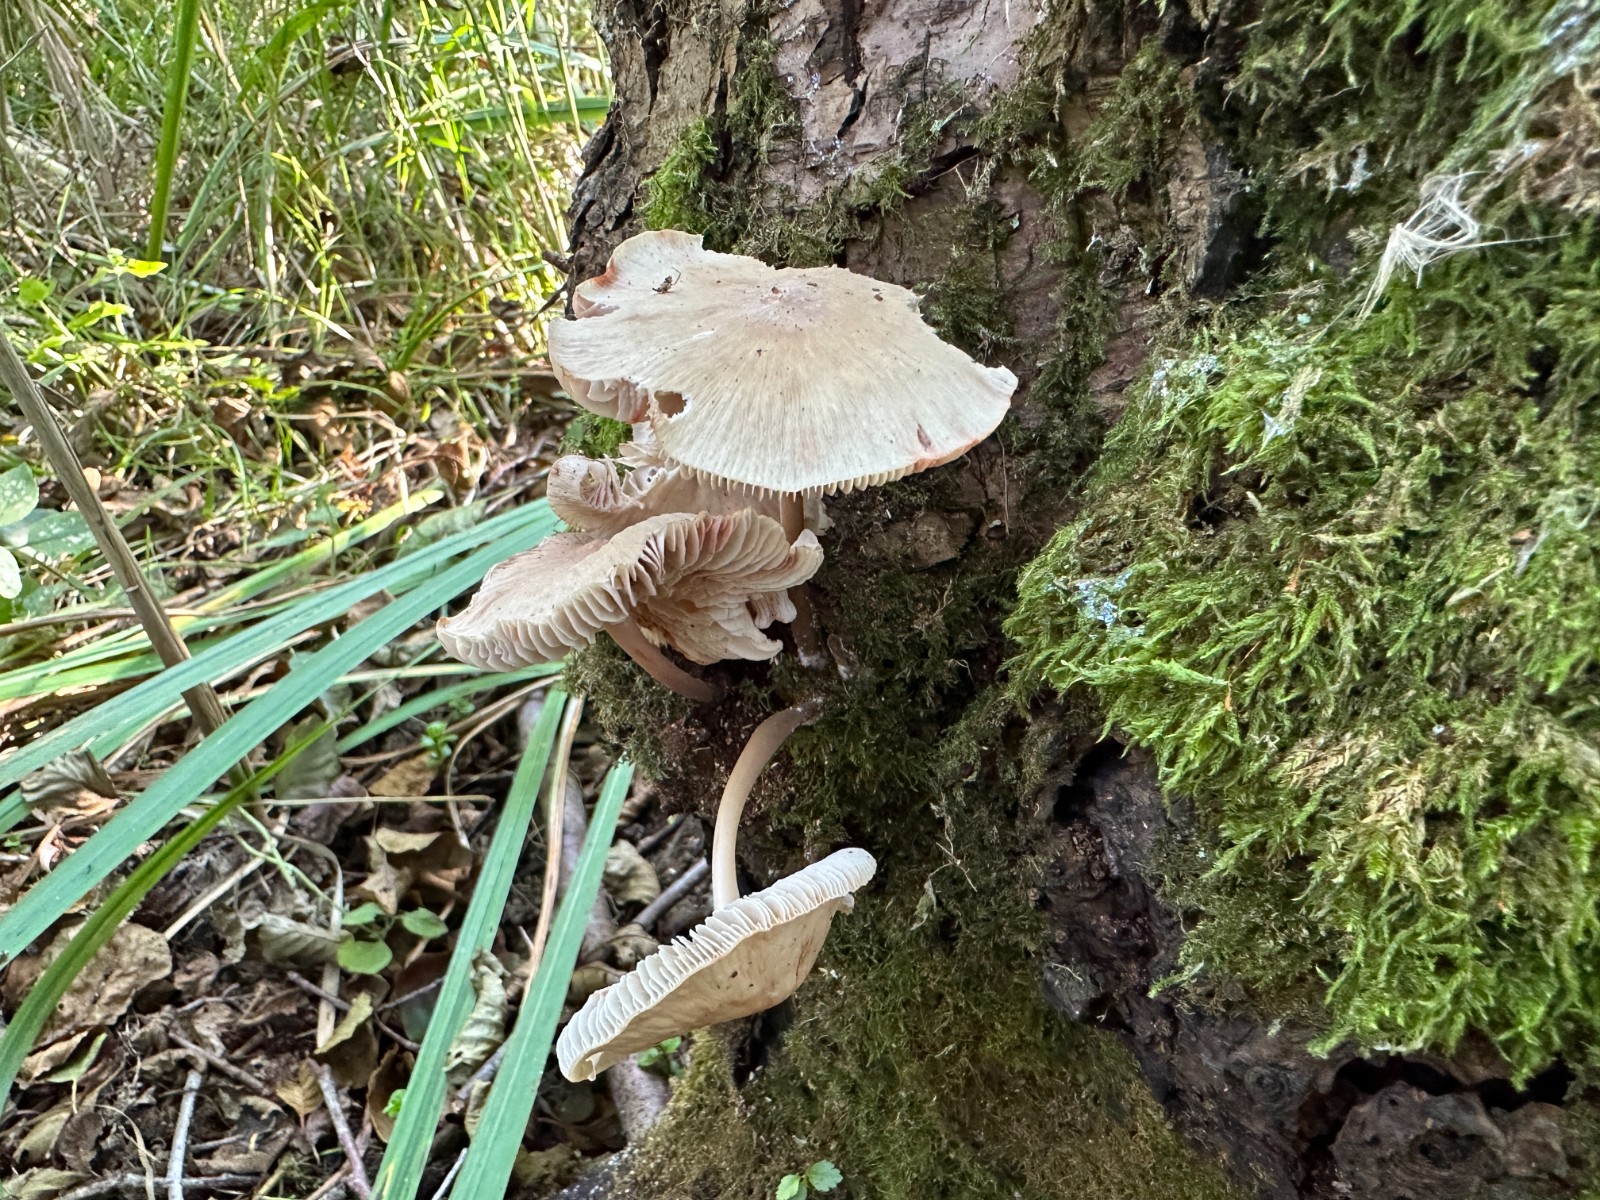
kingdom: Fungi
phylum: Basidiomycota
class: Agaricomycetes
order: Agaricales
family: Mycenaceae
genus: Mycena
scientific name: Mycena galericulata
